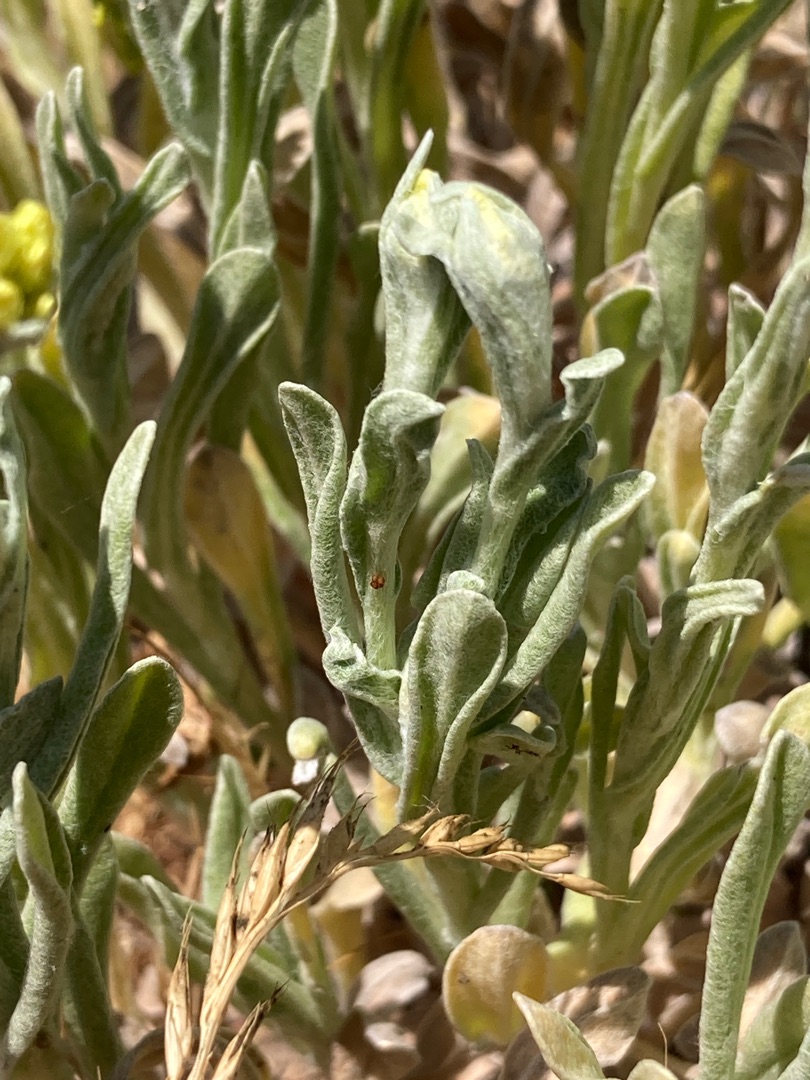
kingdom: Plantae
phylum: Tracheophyta
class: Magnoliopsida
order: Asterales
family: Asteraceae
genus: Helichrysum
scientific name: Helichrysum arenarium
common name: Gul evighedsblomst
